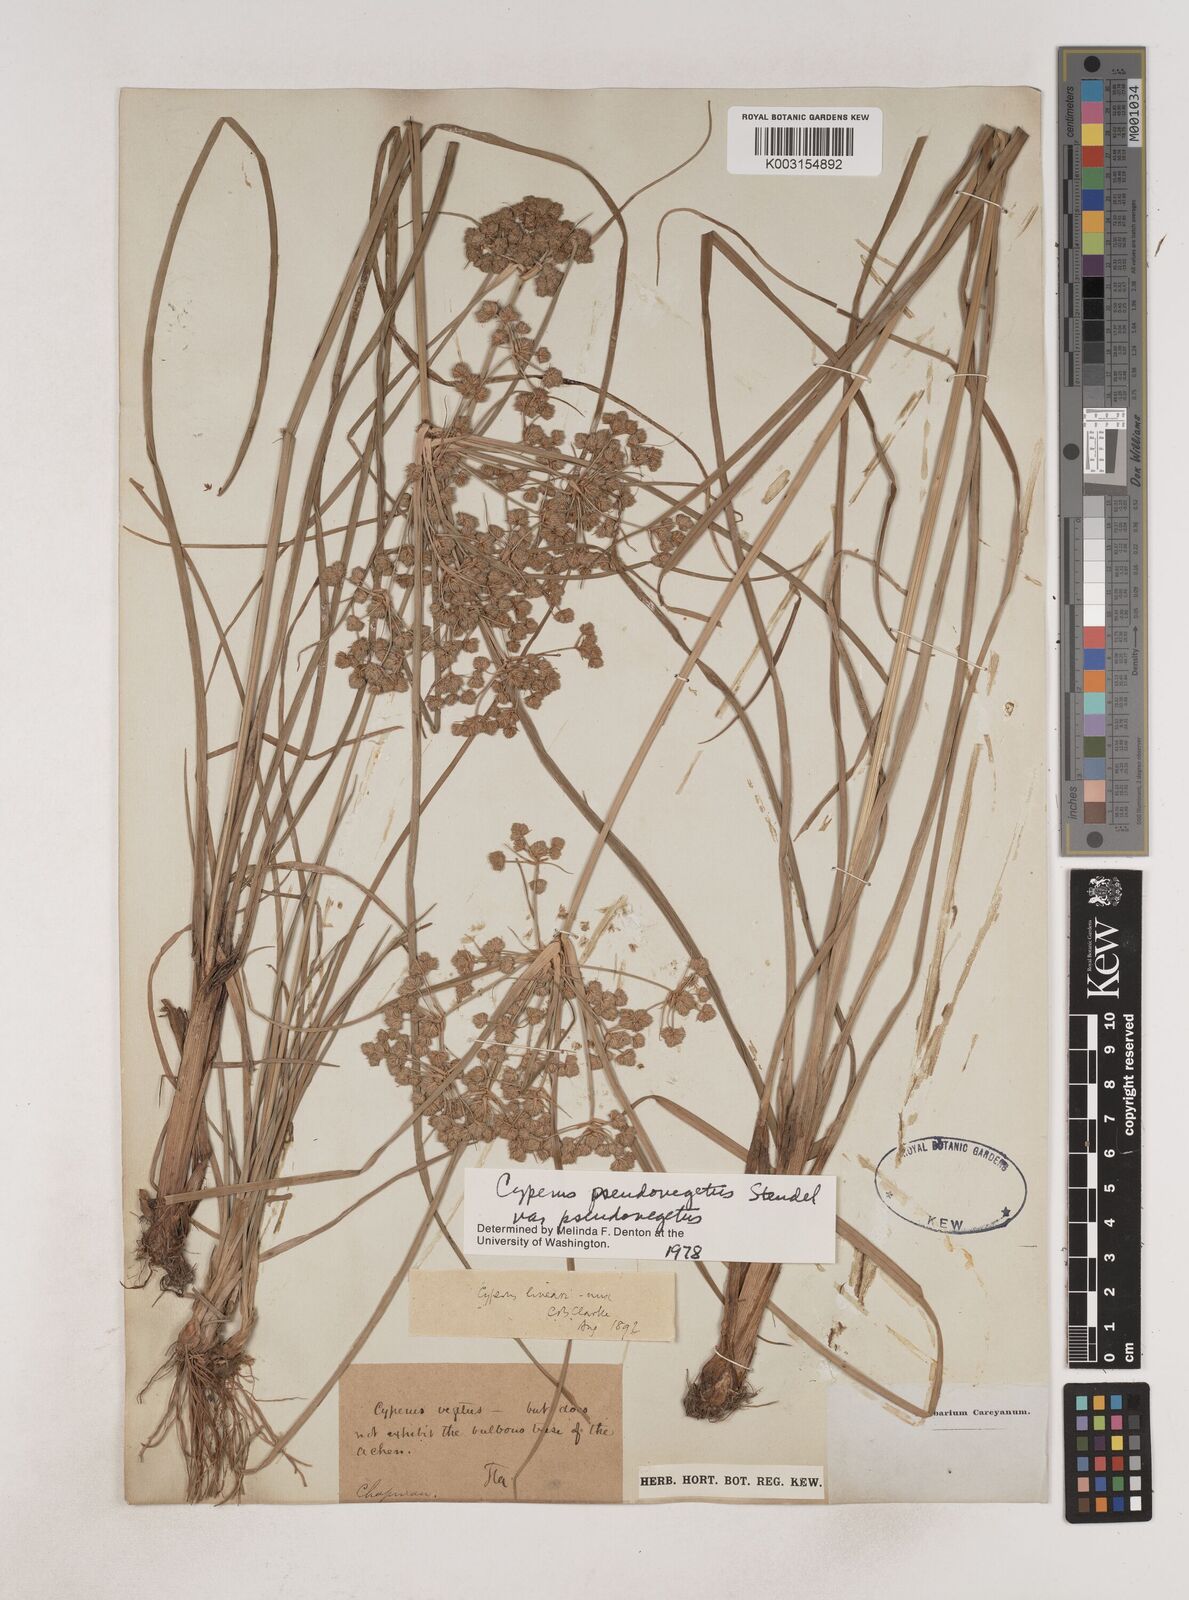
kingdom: Plantae
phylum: Tracheophyta
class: Liliopsida
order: Poales
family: Cyperaceae
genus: Cyperus
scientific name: Cyperus pseudovegetus
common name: Marsh flat sedge
